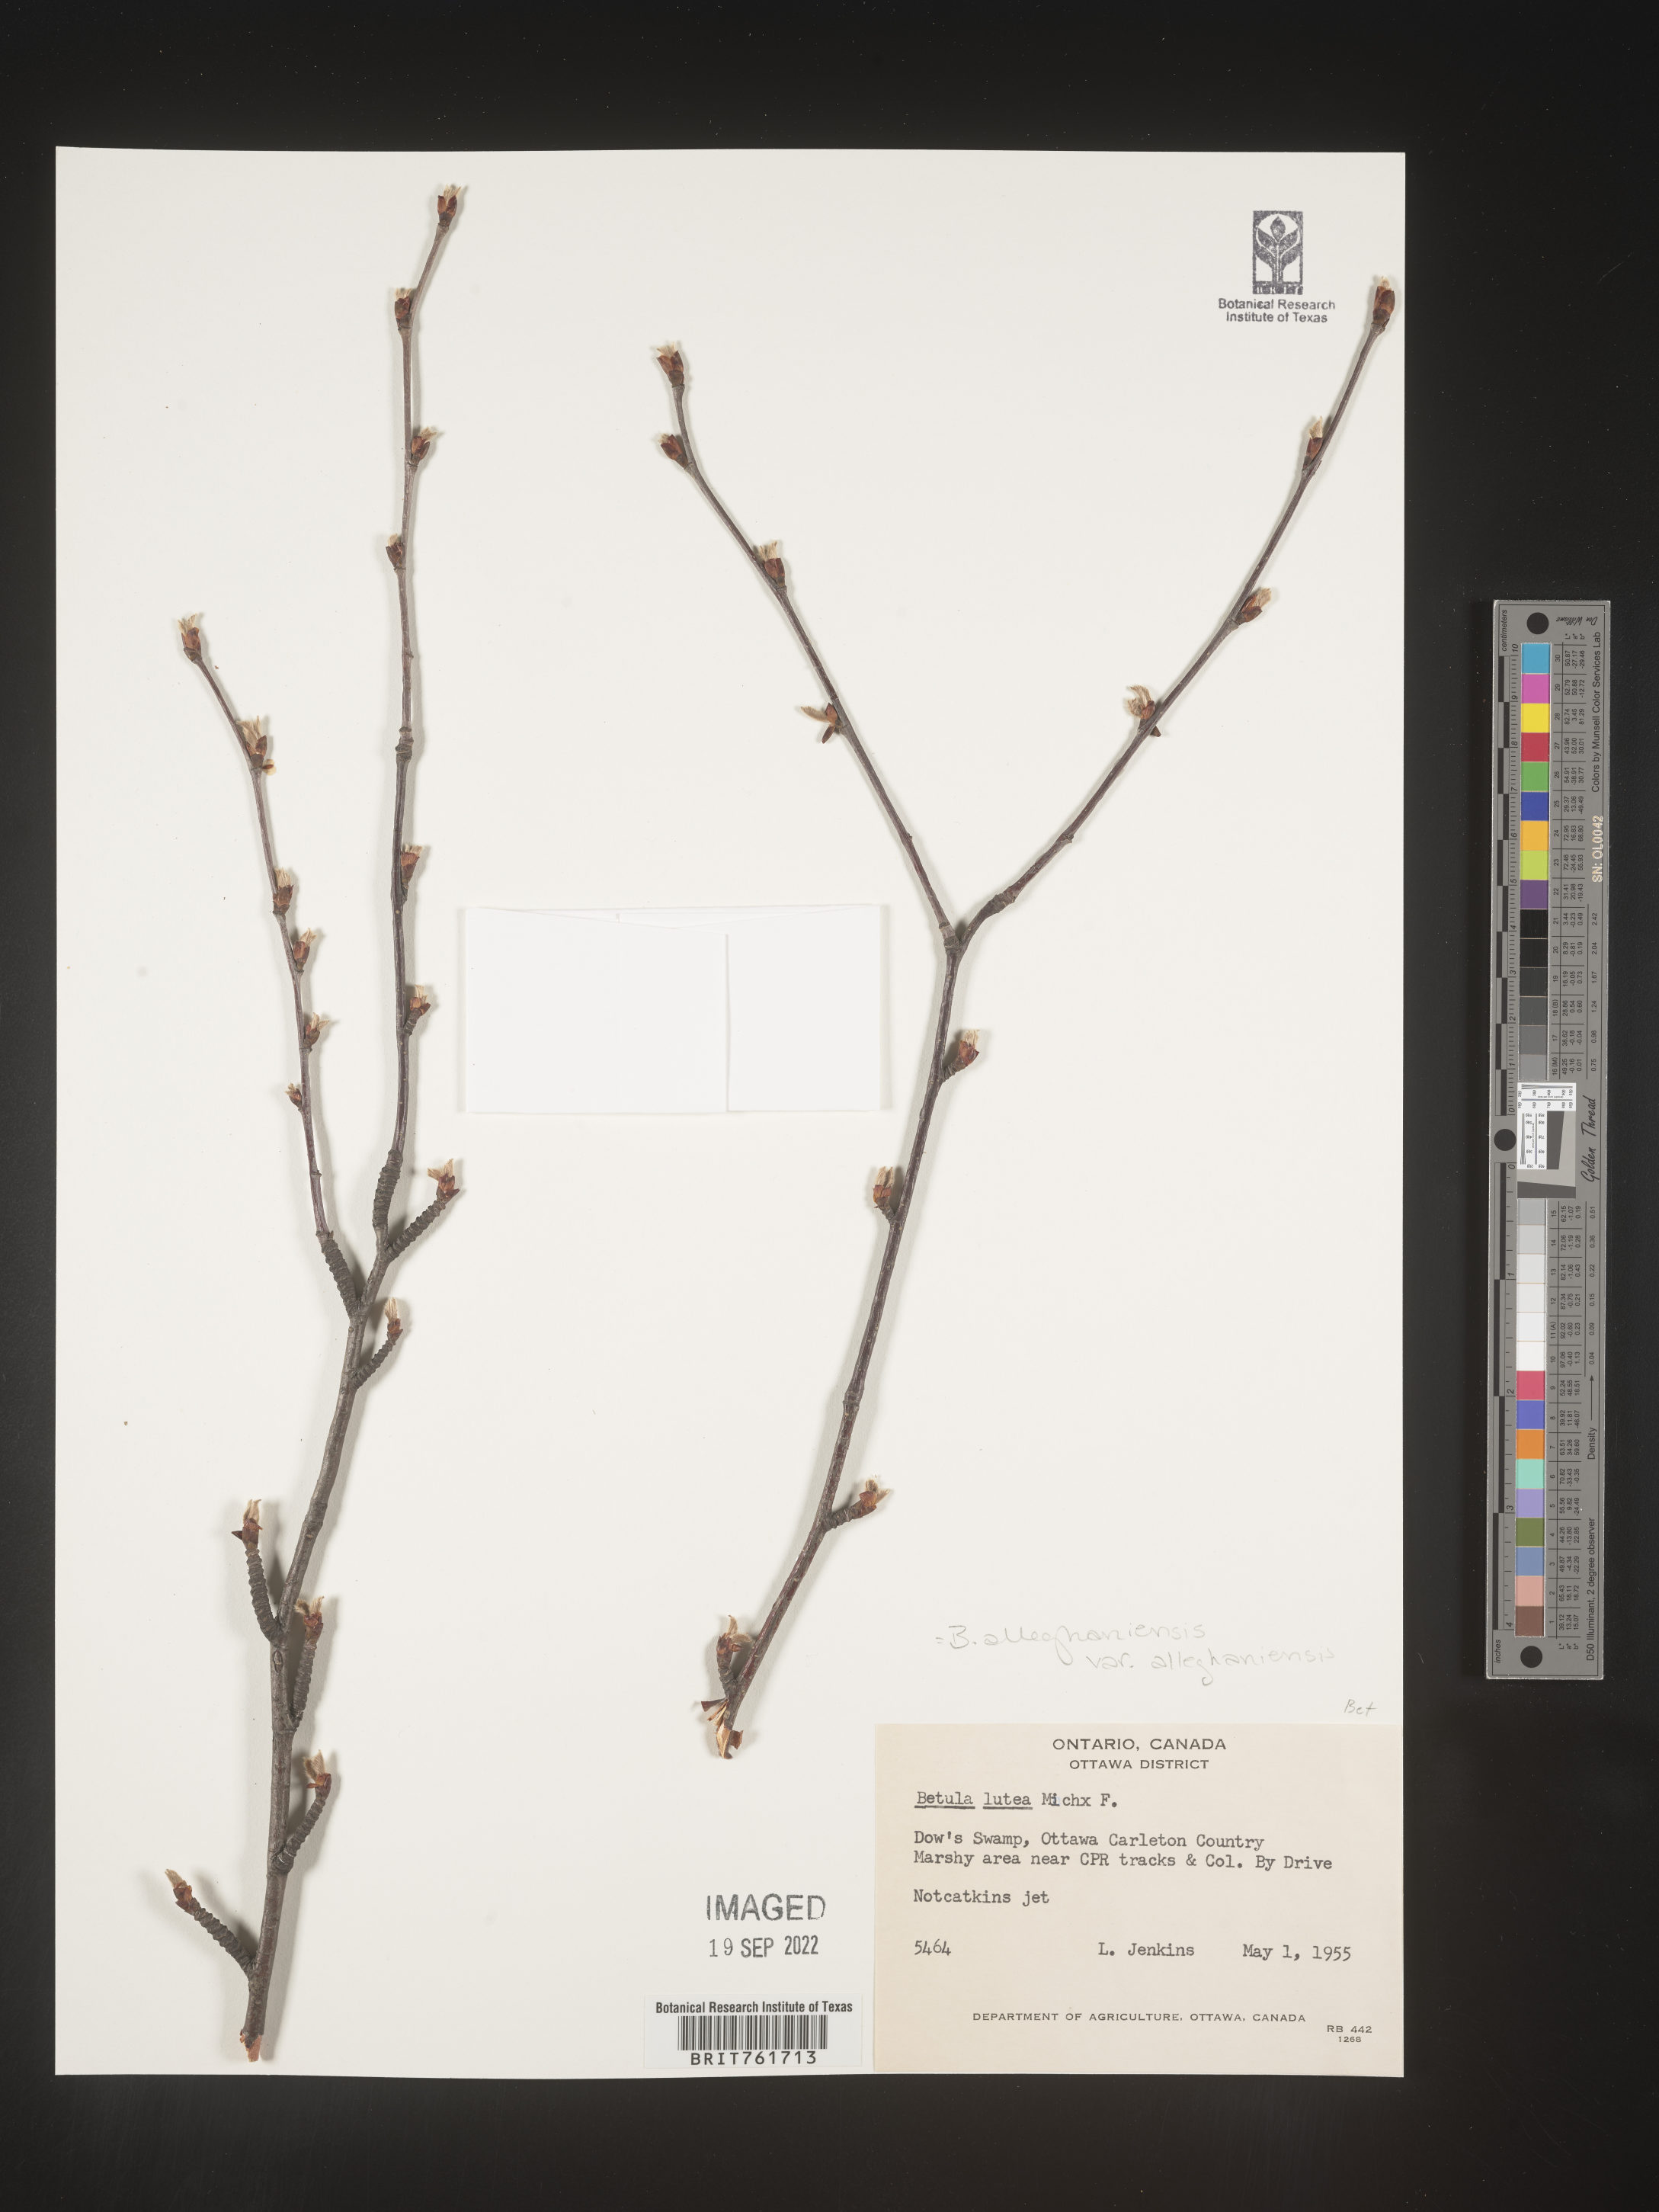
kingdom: Plantae
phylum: Tracheophyta
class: Magnoliopsida
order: Fagales
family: Betulaceae
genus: Betula
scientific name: Betula alleghaniensis
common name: Yellow birch
